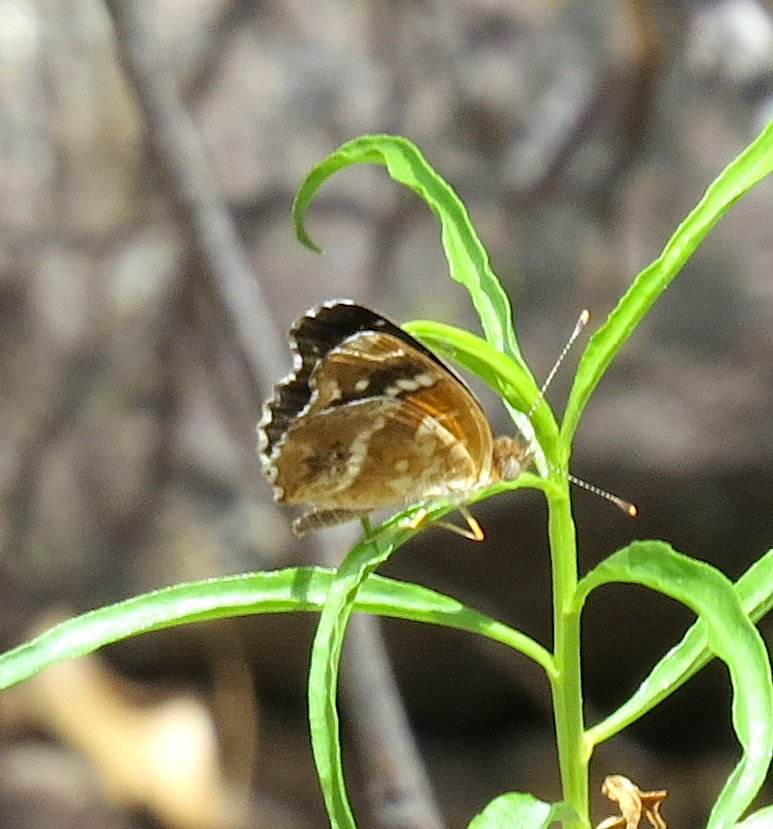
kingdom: Animalia
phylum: Arthropoda
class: Insecta
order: Lepidoptera
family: Nymphalidae
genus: Anthanassa
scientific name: Anthanassa texana
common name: Texan Crescent
